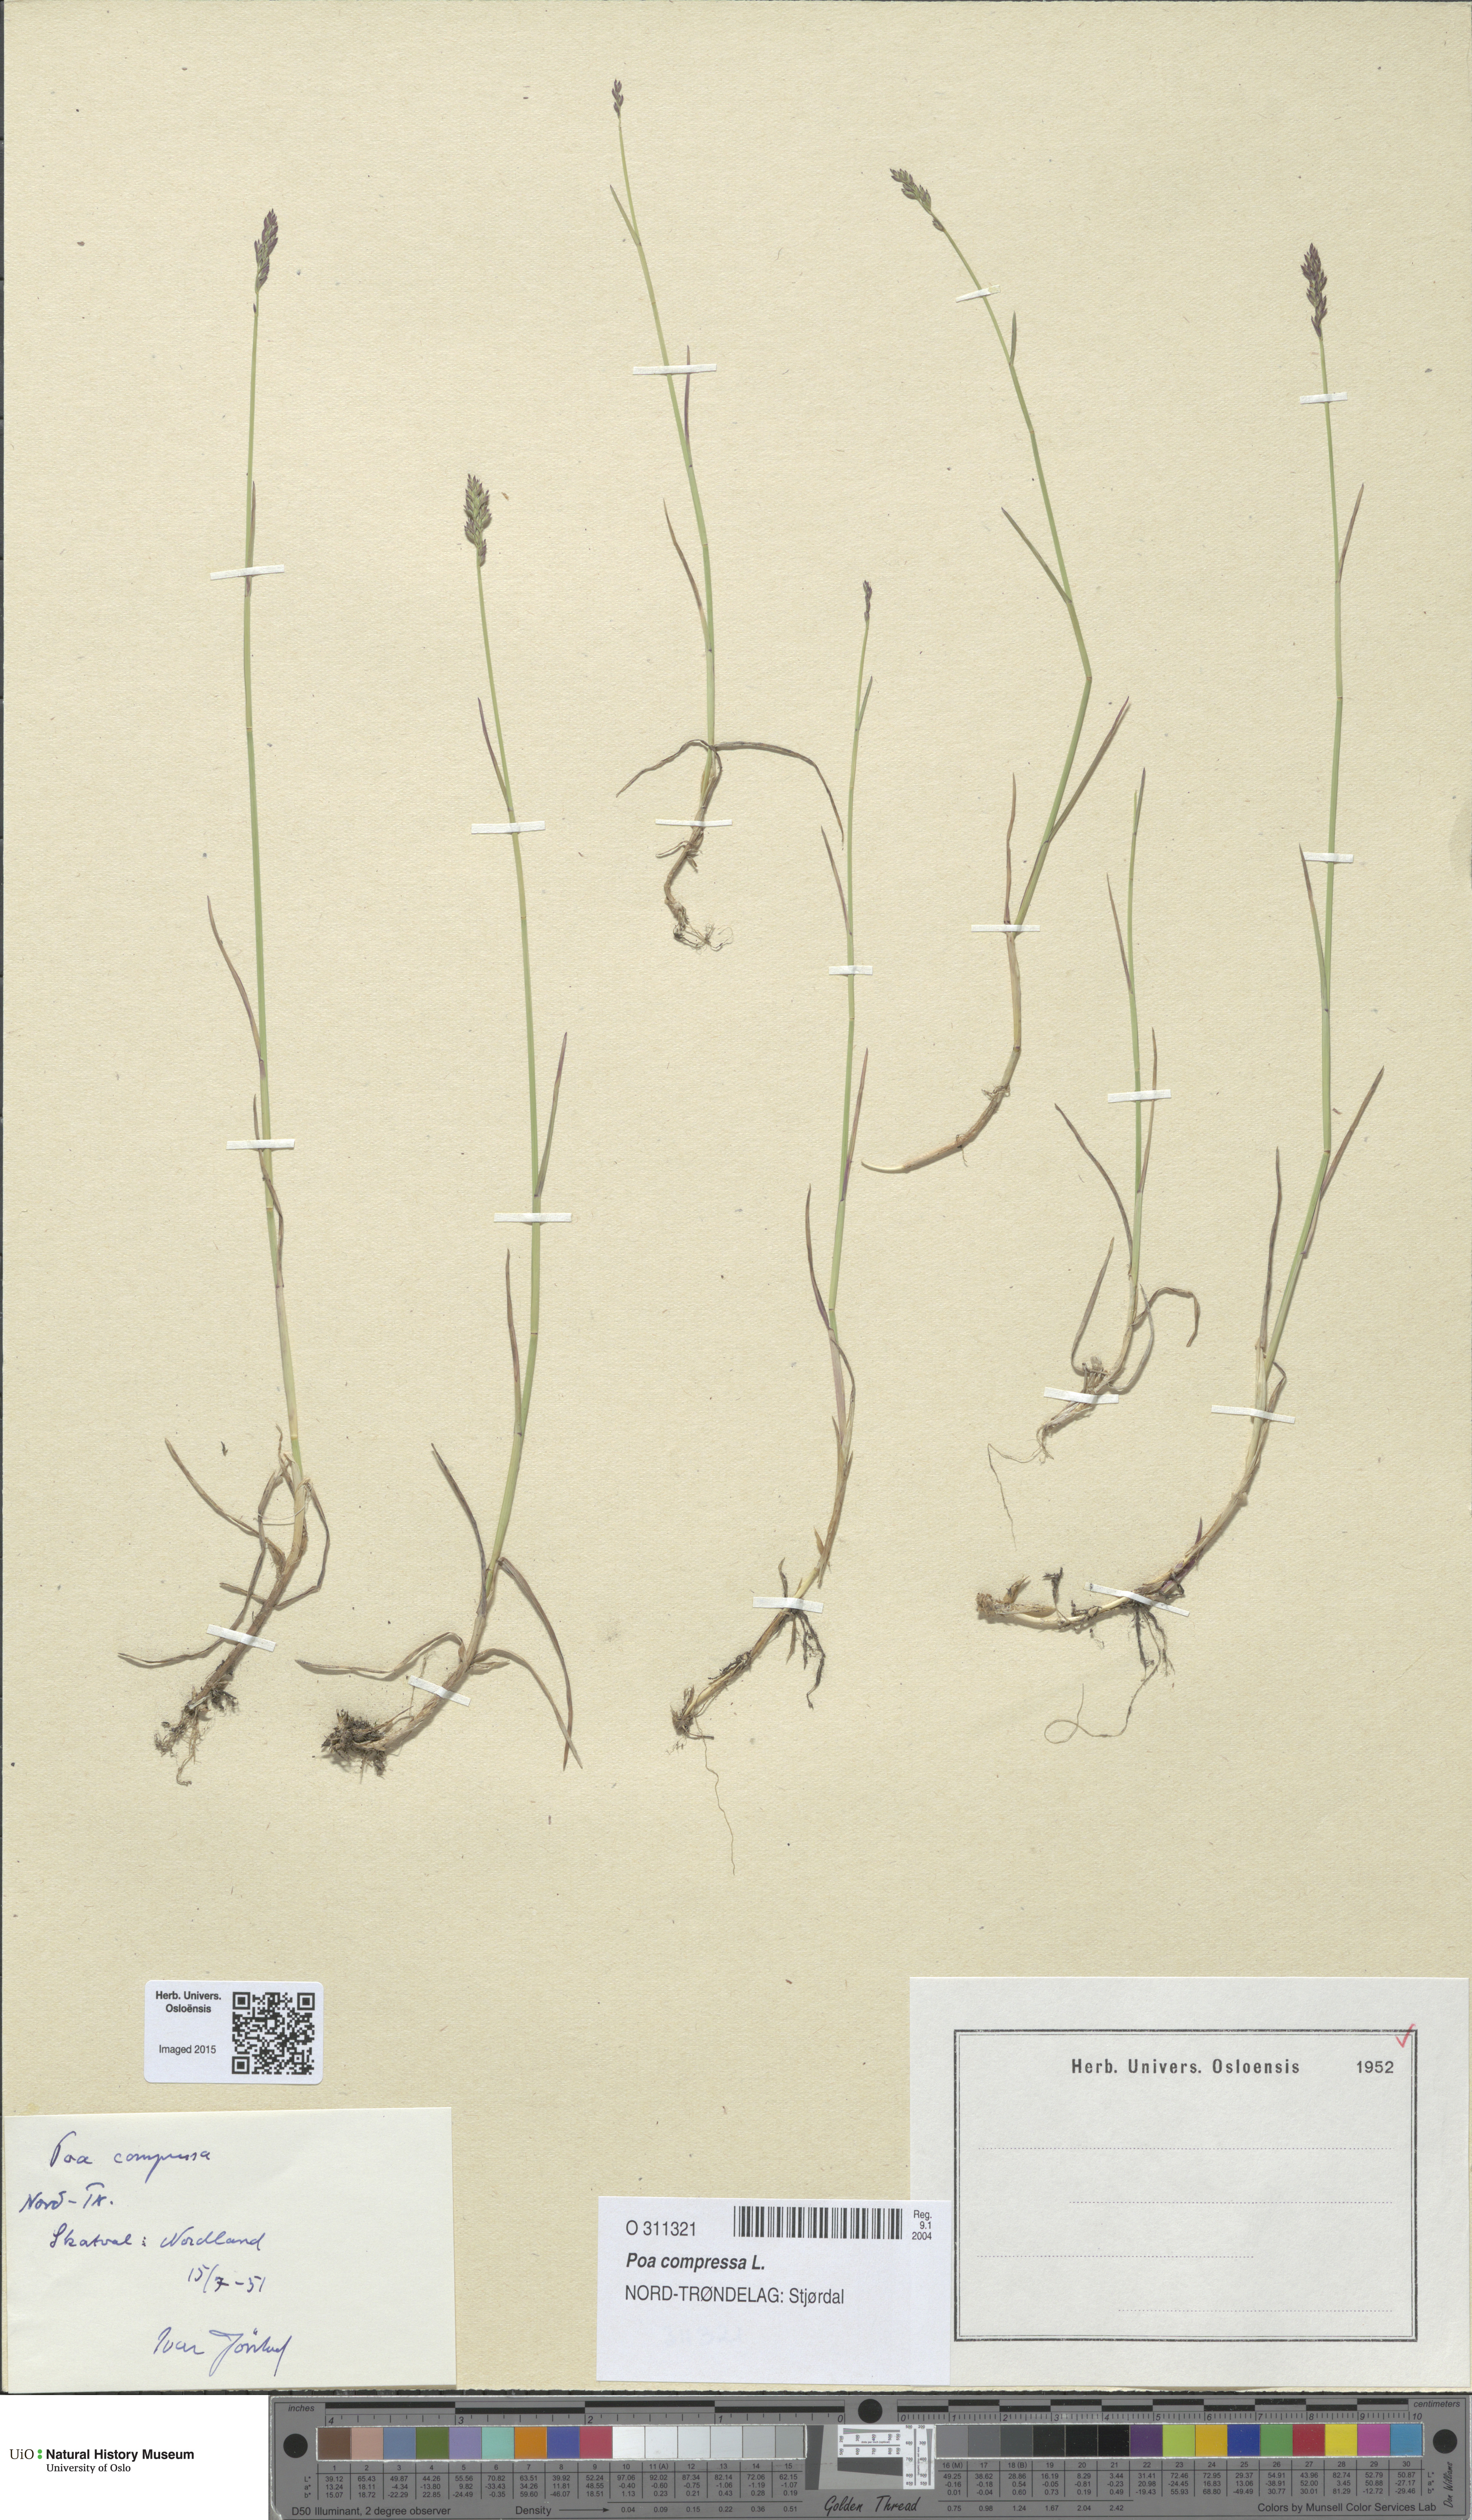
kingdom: Plantae
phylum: Tracheophyta
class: Liliopsida
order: Poales
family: Poaceae
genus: Poa
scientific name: Poa compressa
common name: Canada bluegrass
